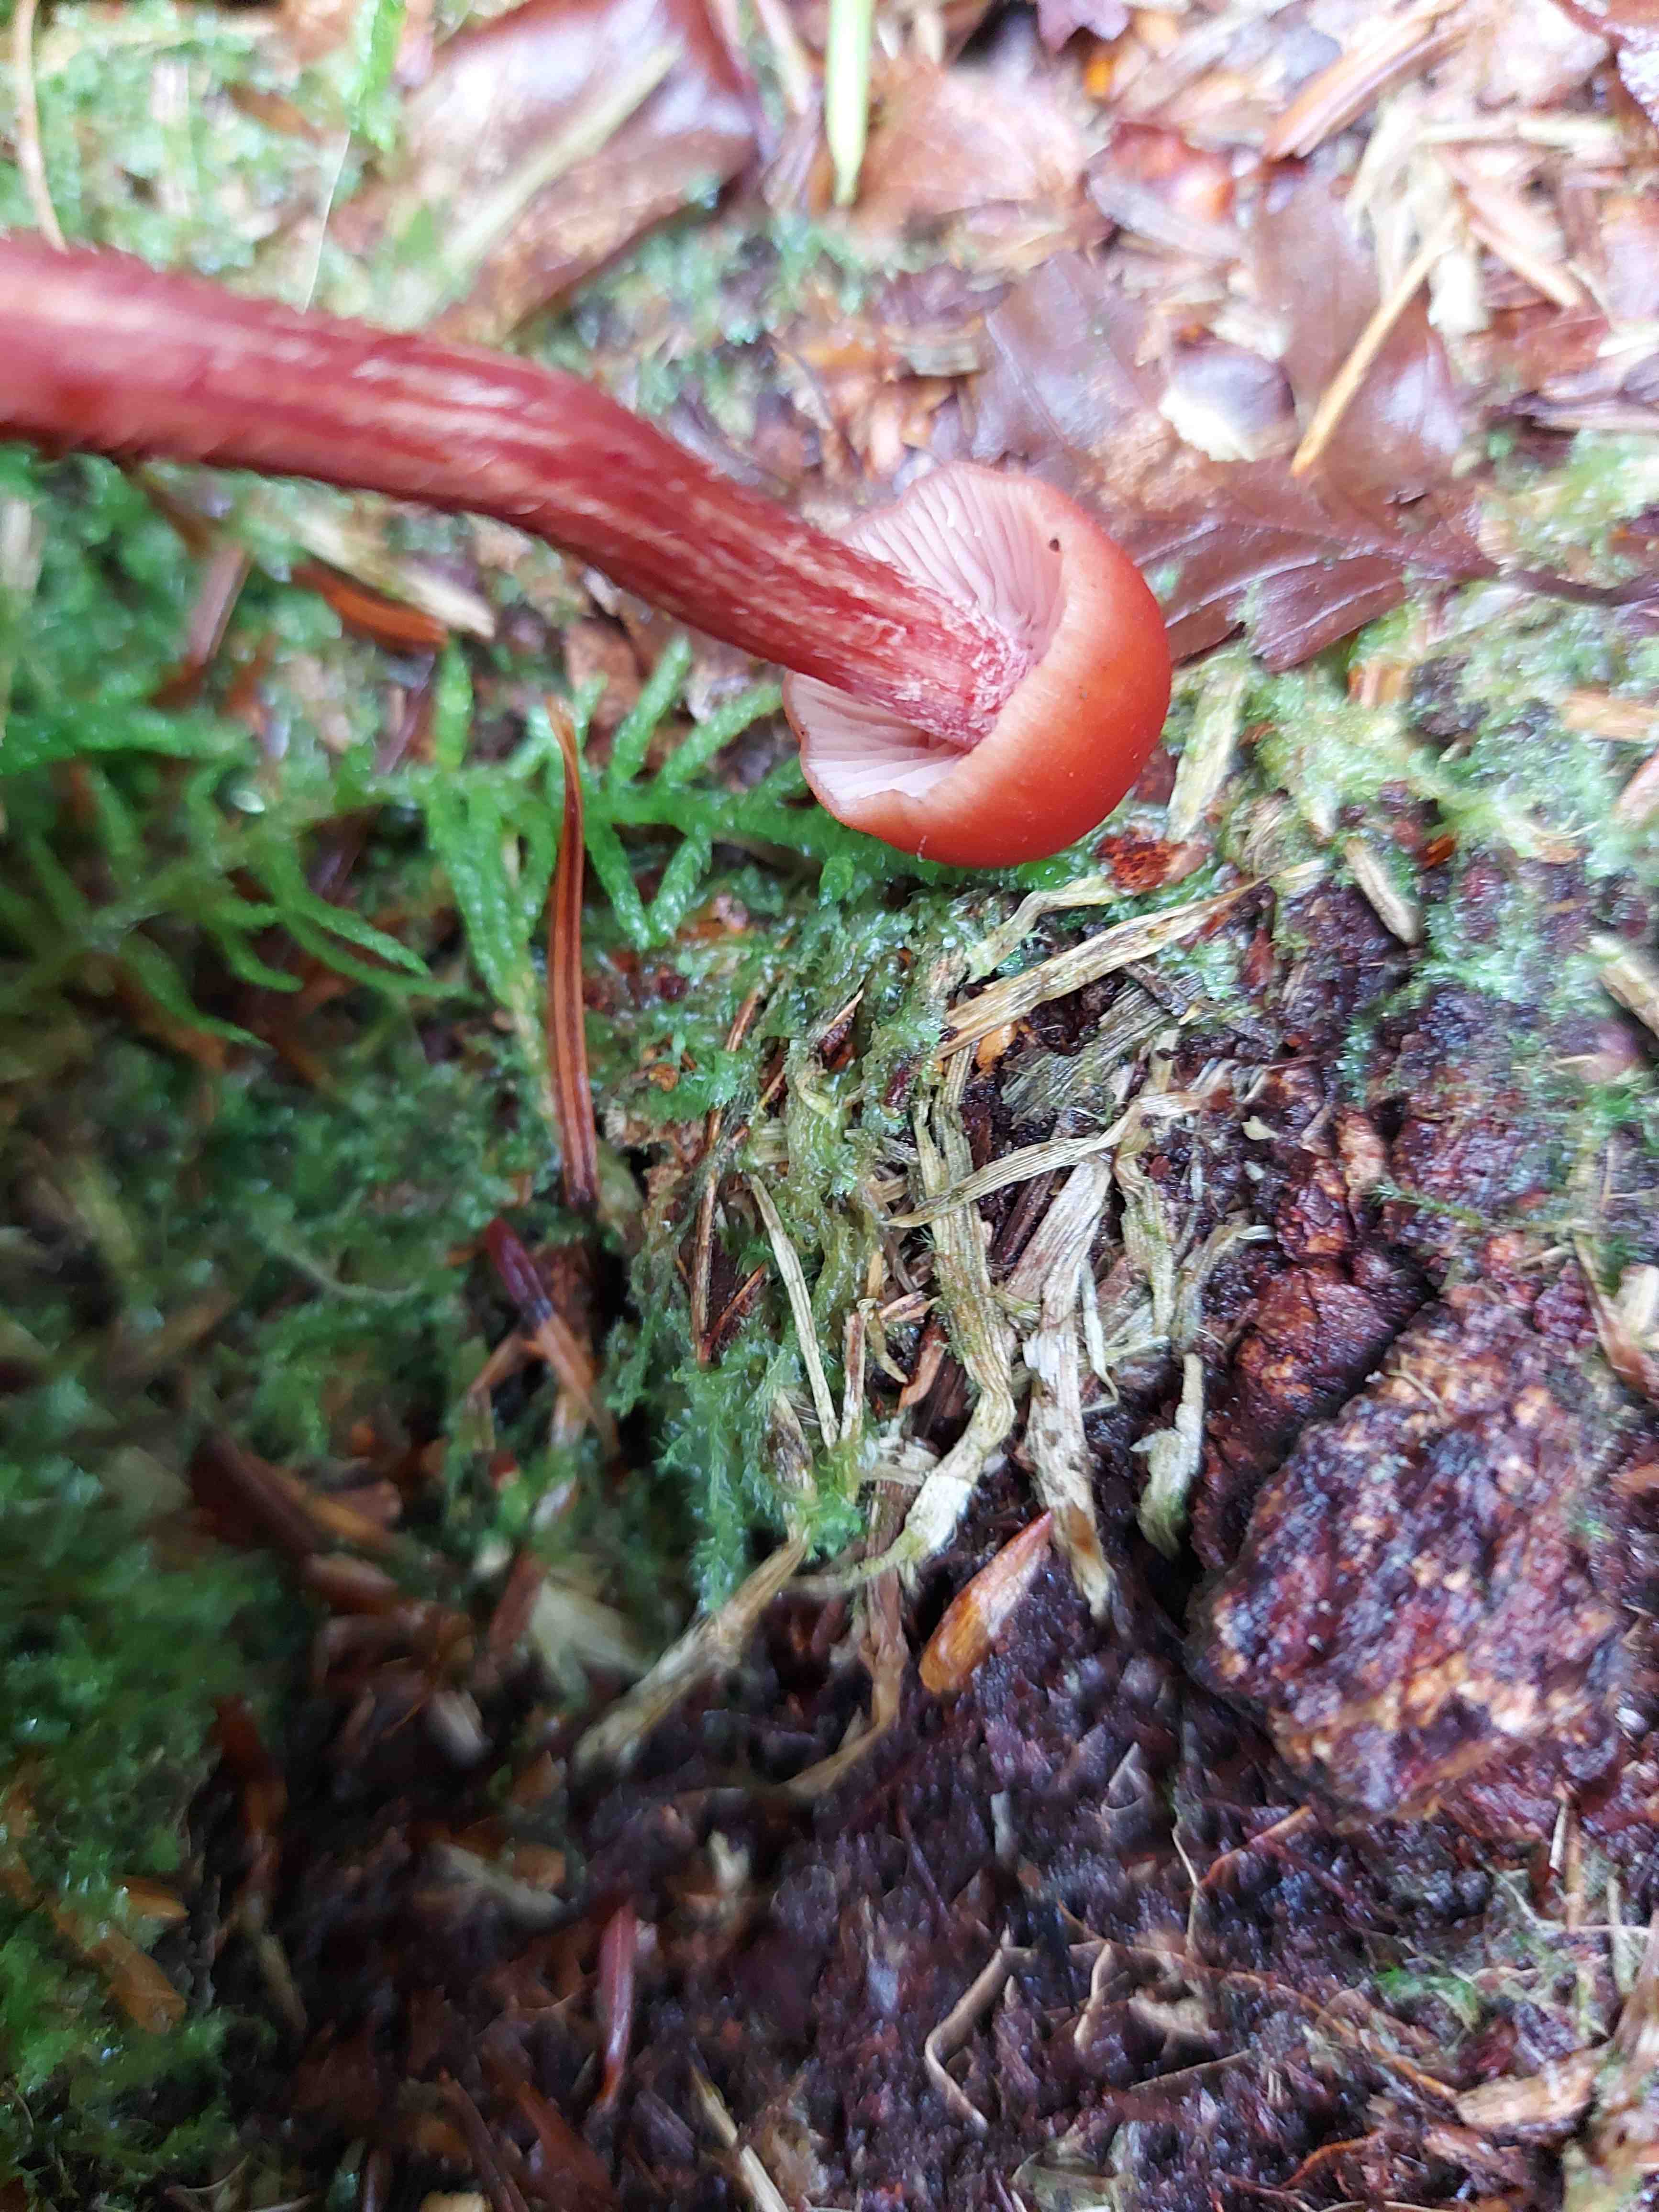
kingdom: Fungi
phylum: Basidiomycota
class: Agaricomycetes
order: Agaricales
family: Hydnangiaceae
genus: Laccaria
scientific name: Laccaria
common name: ametysthat
